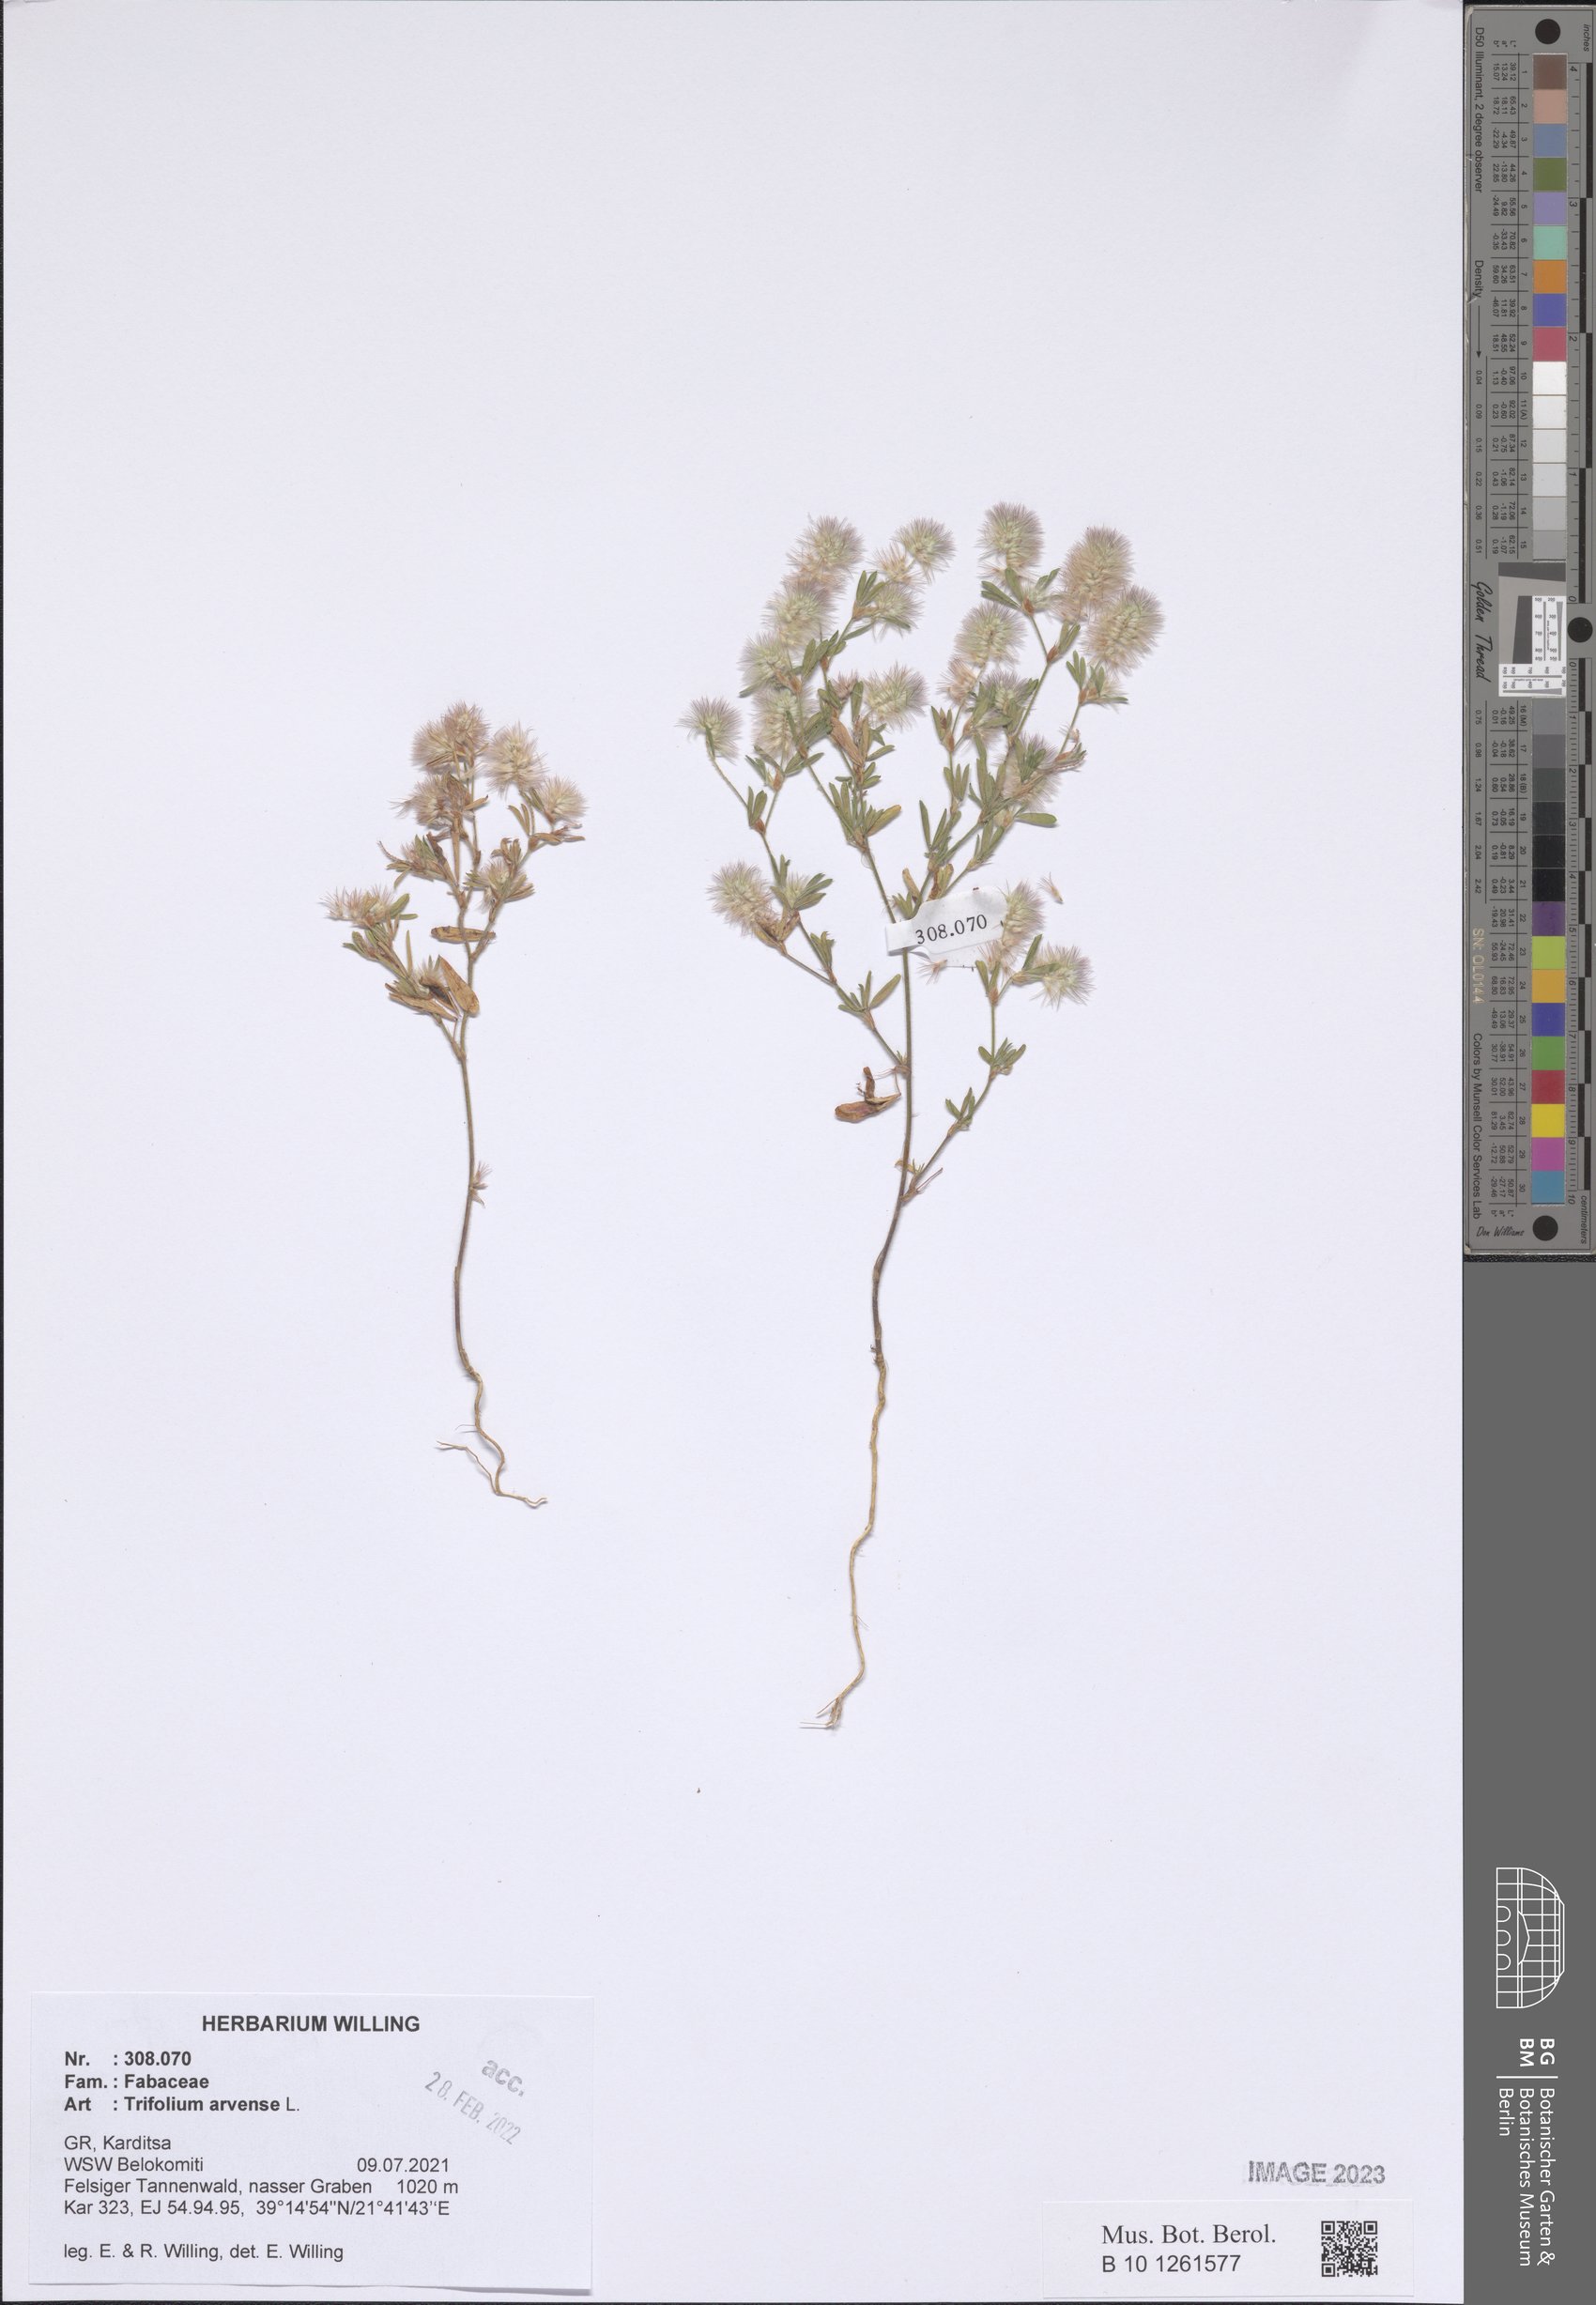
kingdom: Plantae
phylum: Tracheophyta
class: Magnoliopsida
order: Fabales
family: Fabaceae
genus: Trifolium
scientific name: Trifolium arvense
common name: Hare's-foot clover
